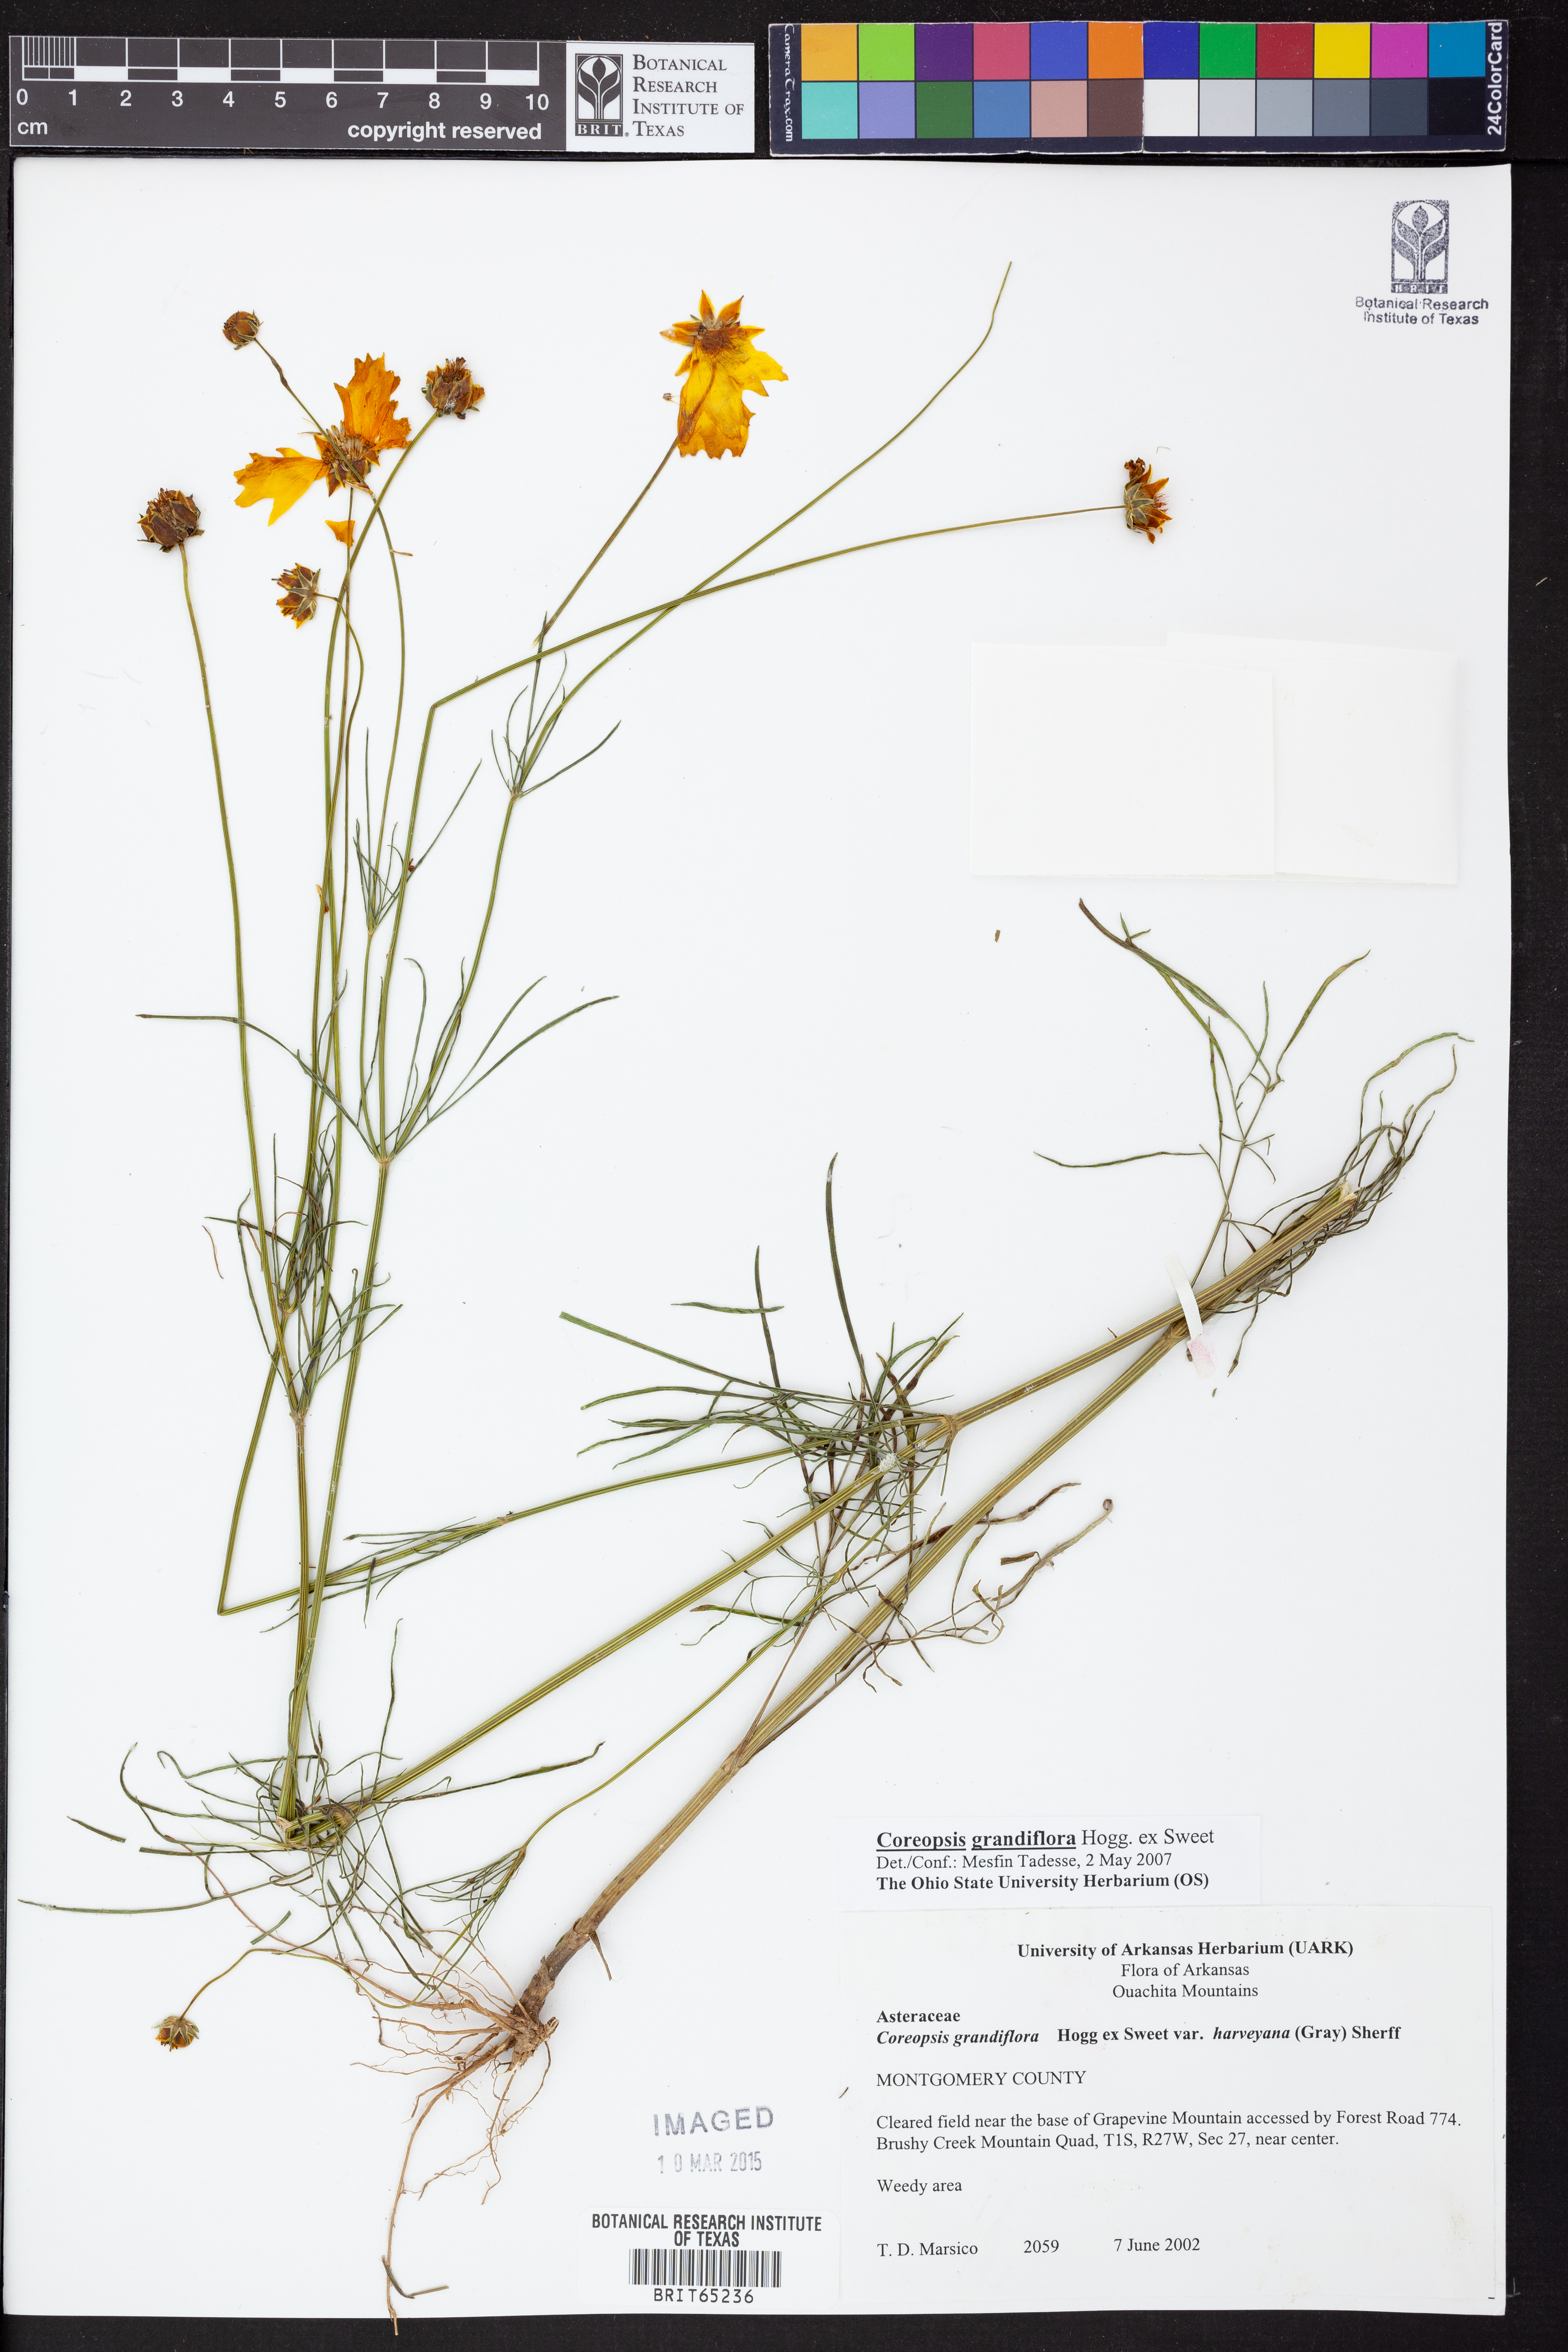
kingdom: Plantae
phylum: Tracheophyta
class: Magnoliopsida
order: Asterales
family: Asteraceae
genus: Coreopsis
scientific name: Coreopsis grandiflora
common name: Large-flowered tickseed
